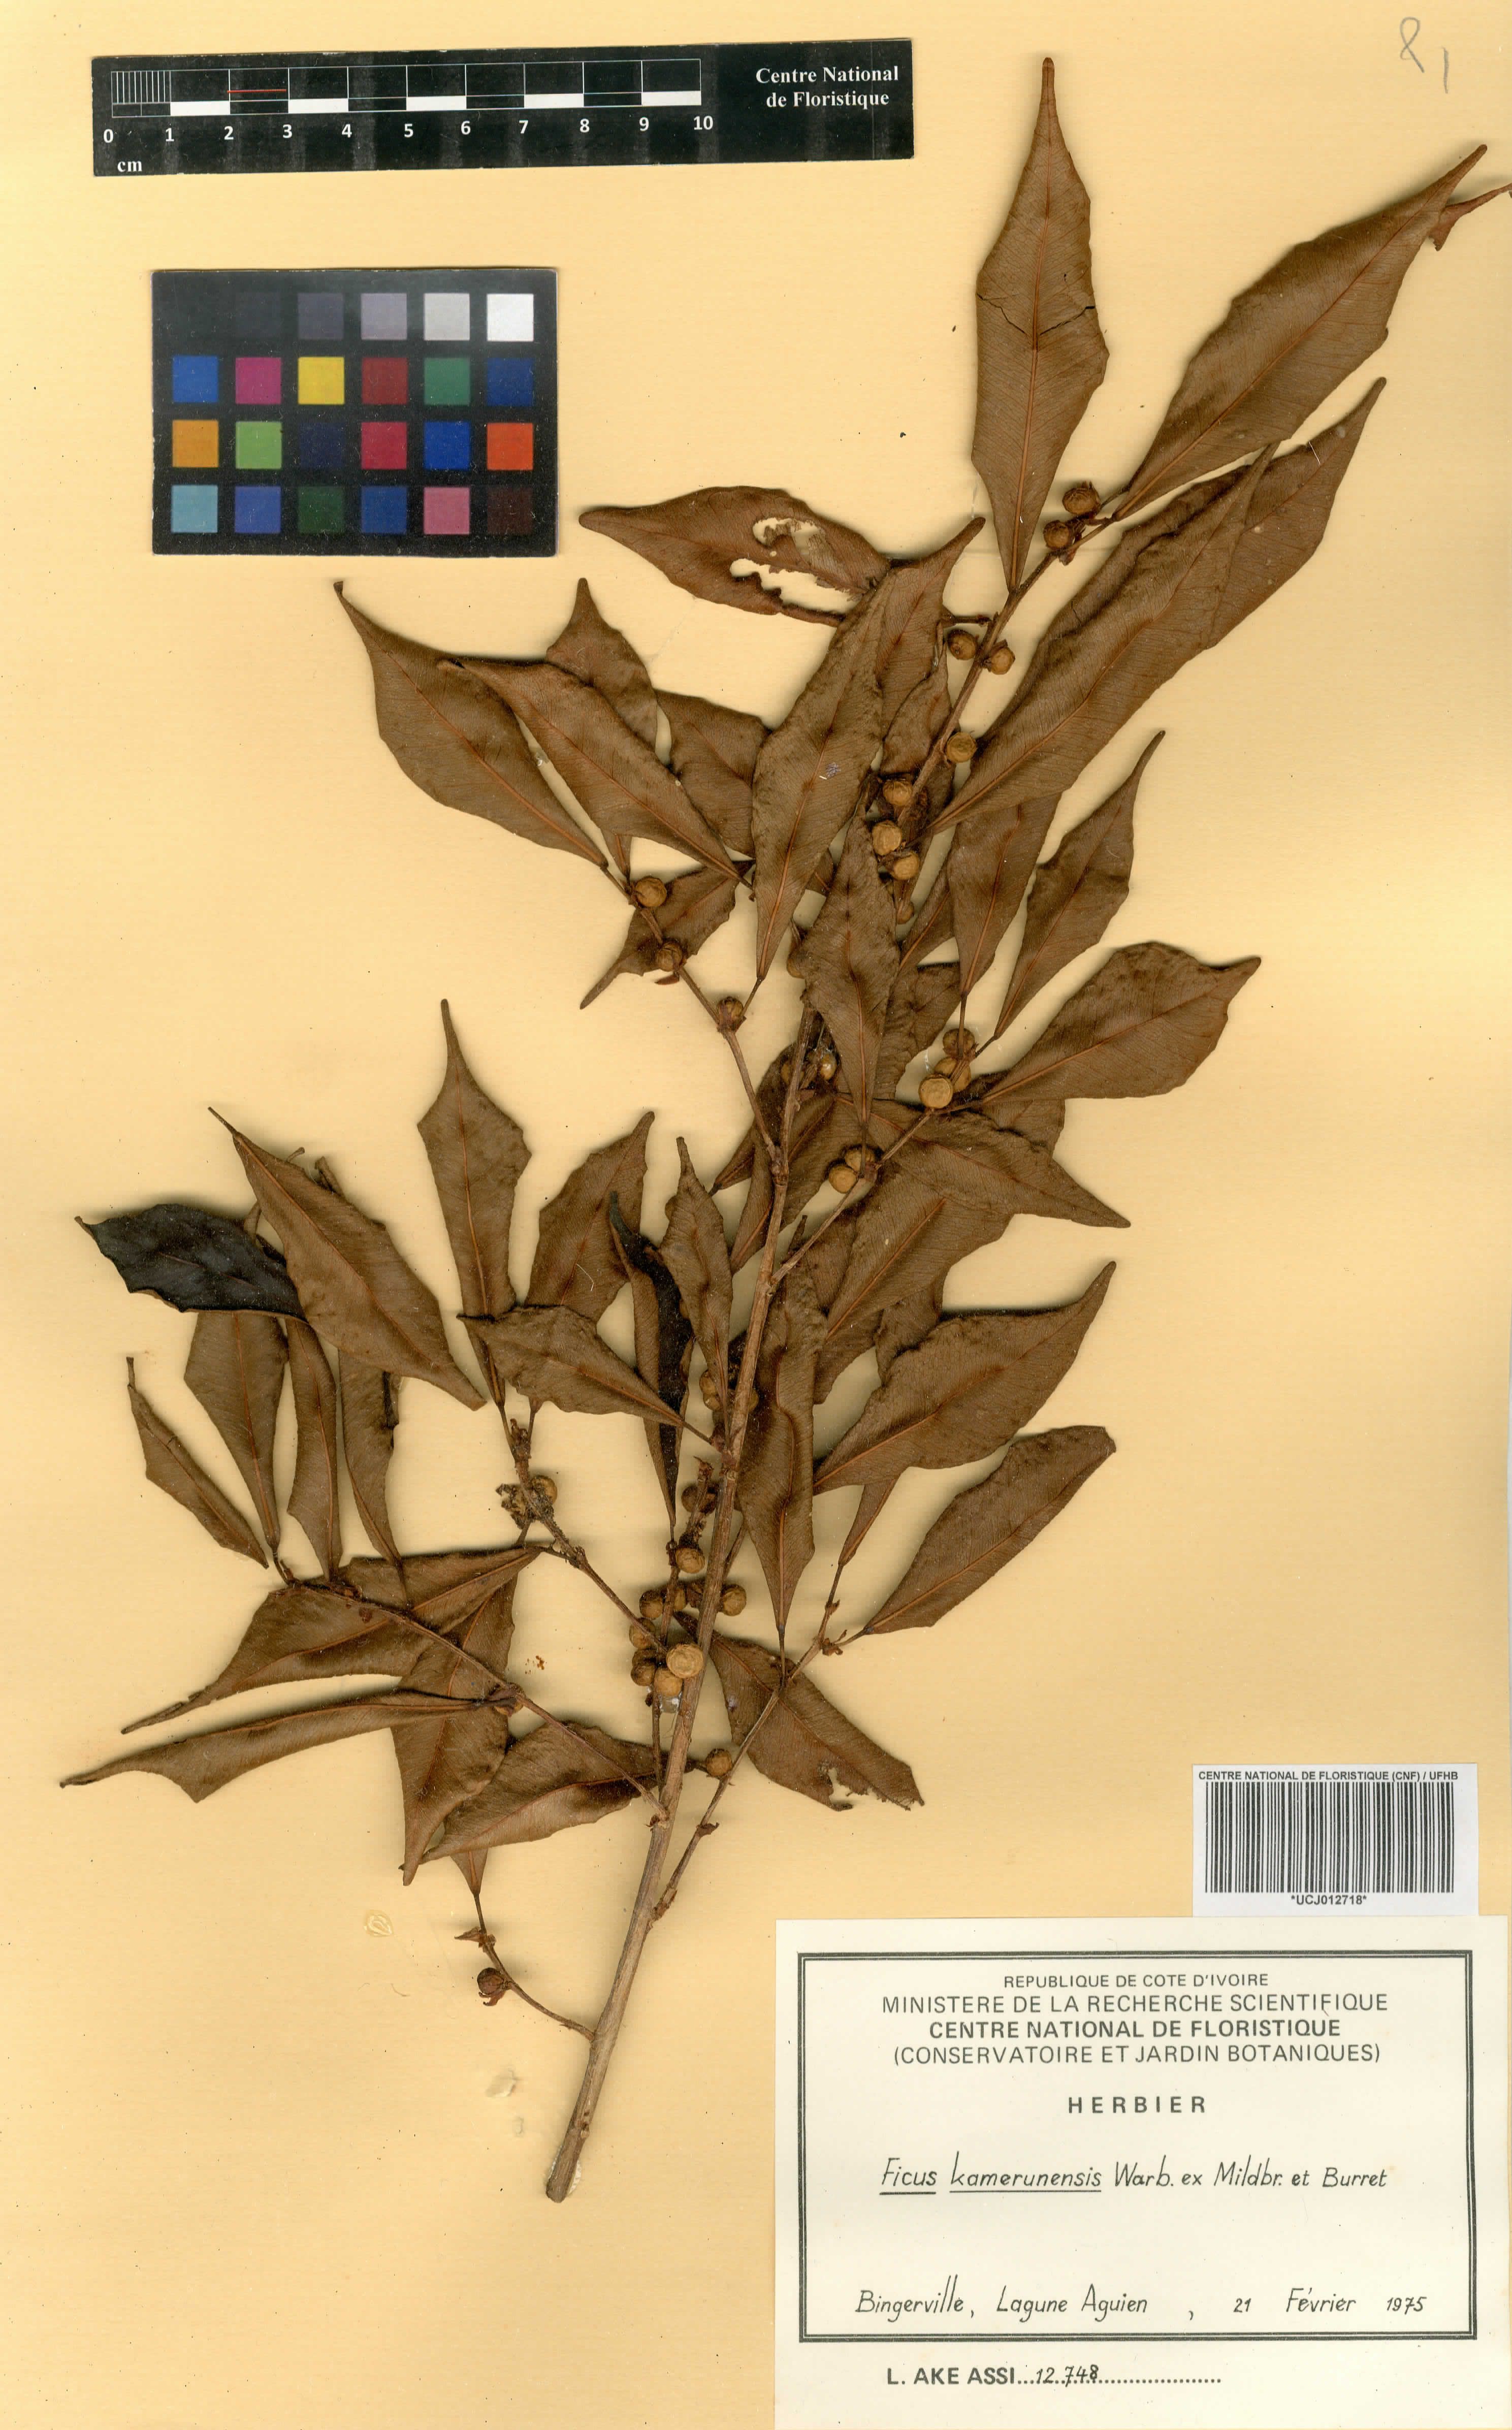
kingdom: Plantae
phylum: Tracheophyta
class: Magnoliopsida
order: Rosales
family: Moraceae
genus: Ficus
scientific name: Ficus kamerunensis
